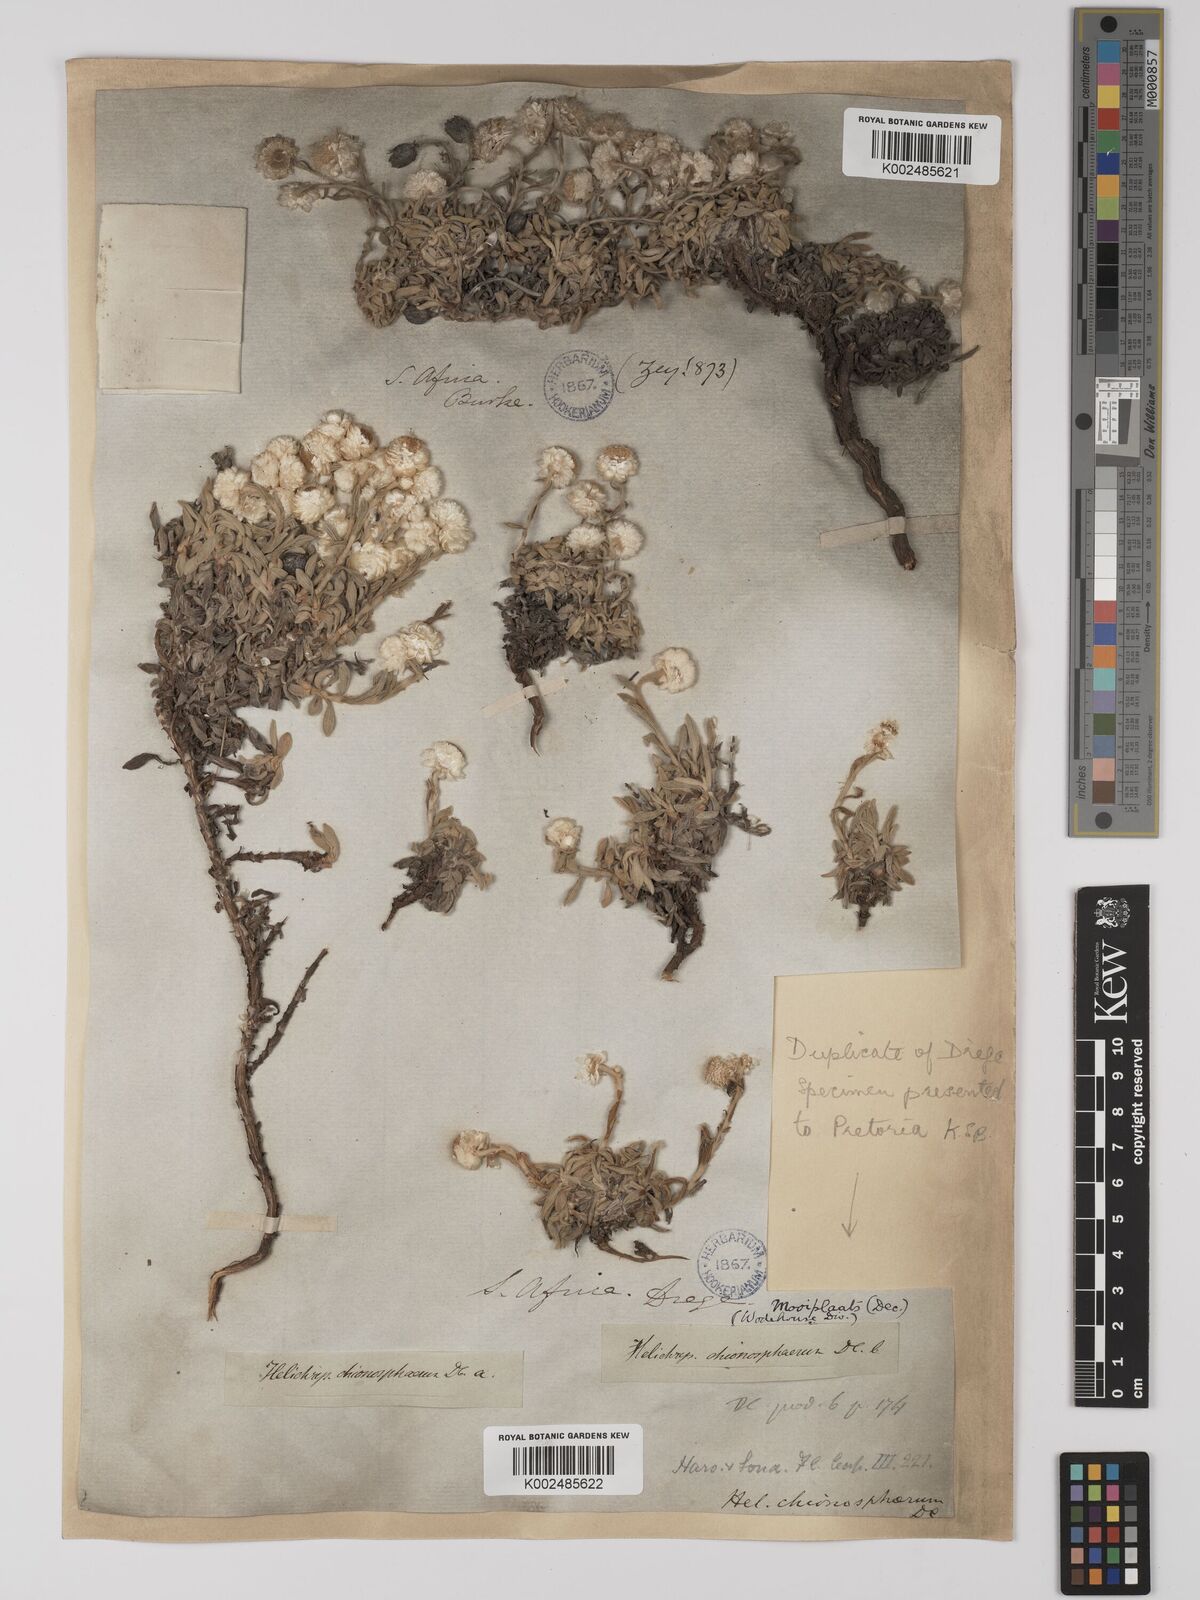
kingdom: Plantae
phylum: Tracheophyta
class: Magnoliopsida
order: Asterales
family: Asteraceae
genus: Helichrysum
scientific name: Helichrysum chionosphaerum
